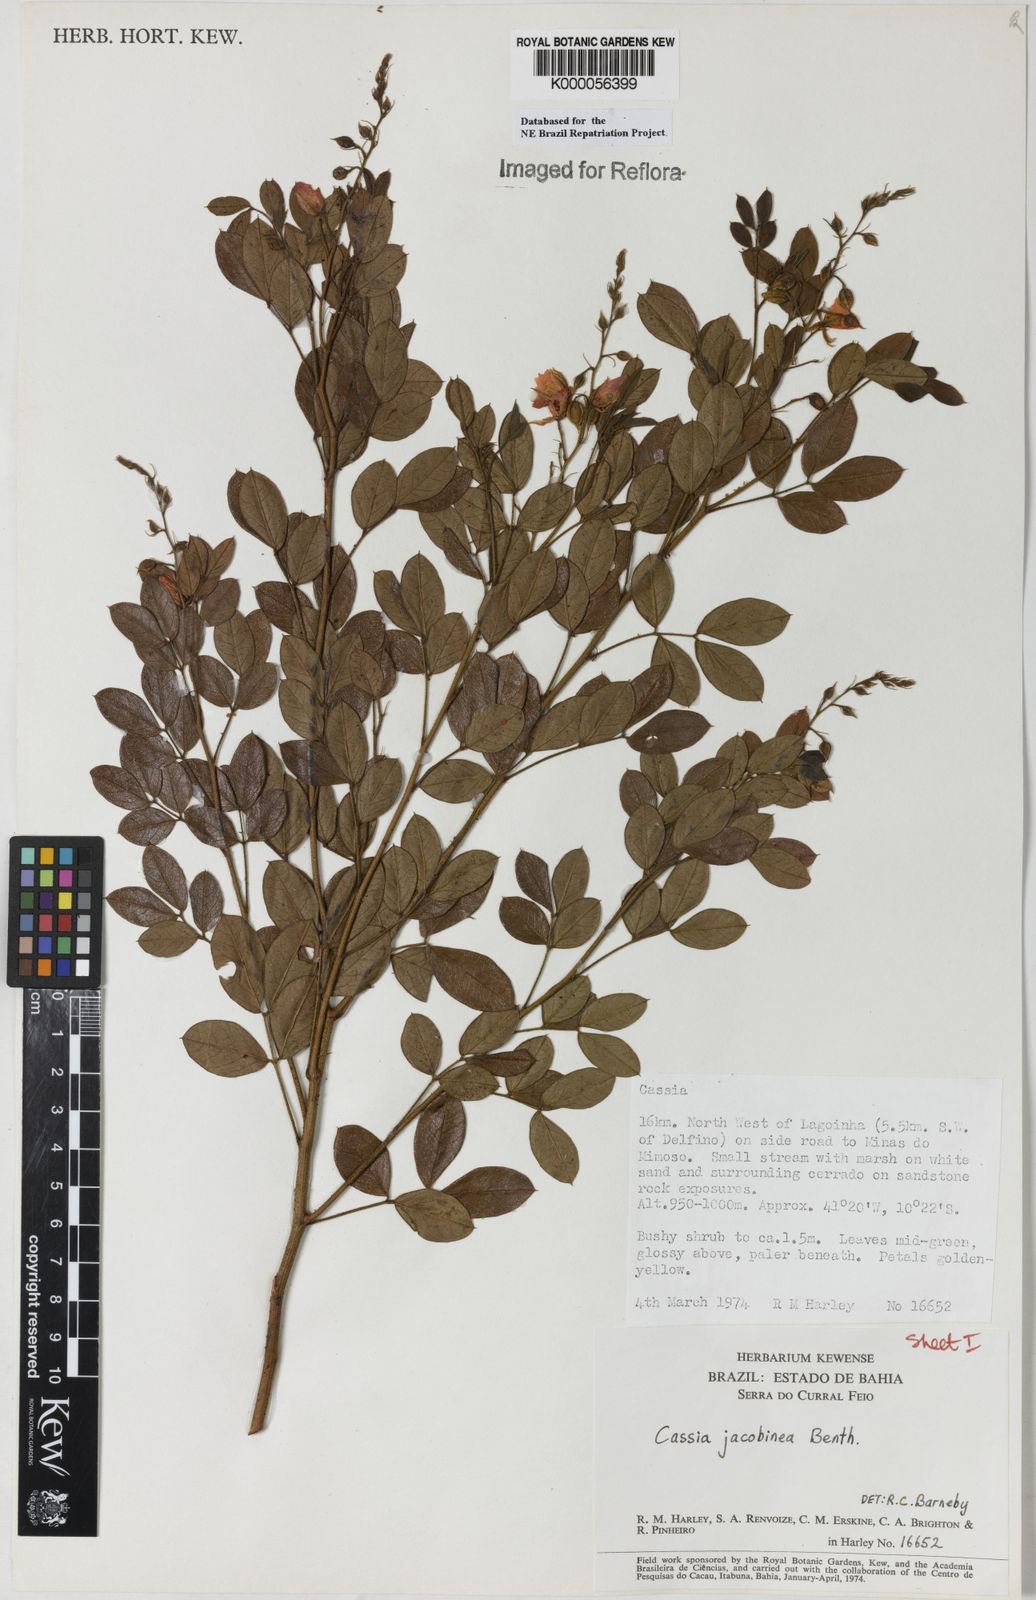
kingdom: Plantae
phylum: Tracheophyta
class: Magnoliopsida
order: Fabales
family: Fabaceae
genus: Chamaecrista
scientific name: Chamaecrista jacobinea
